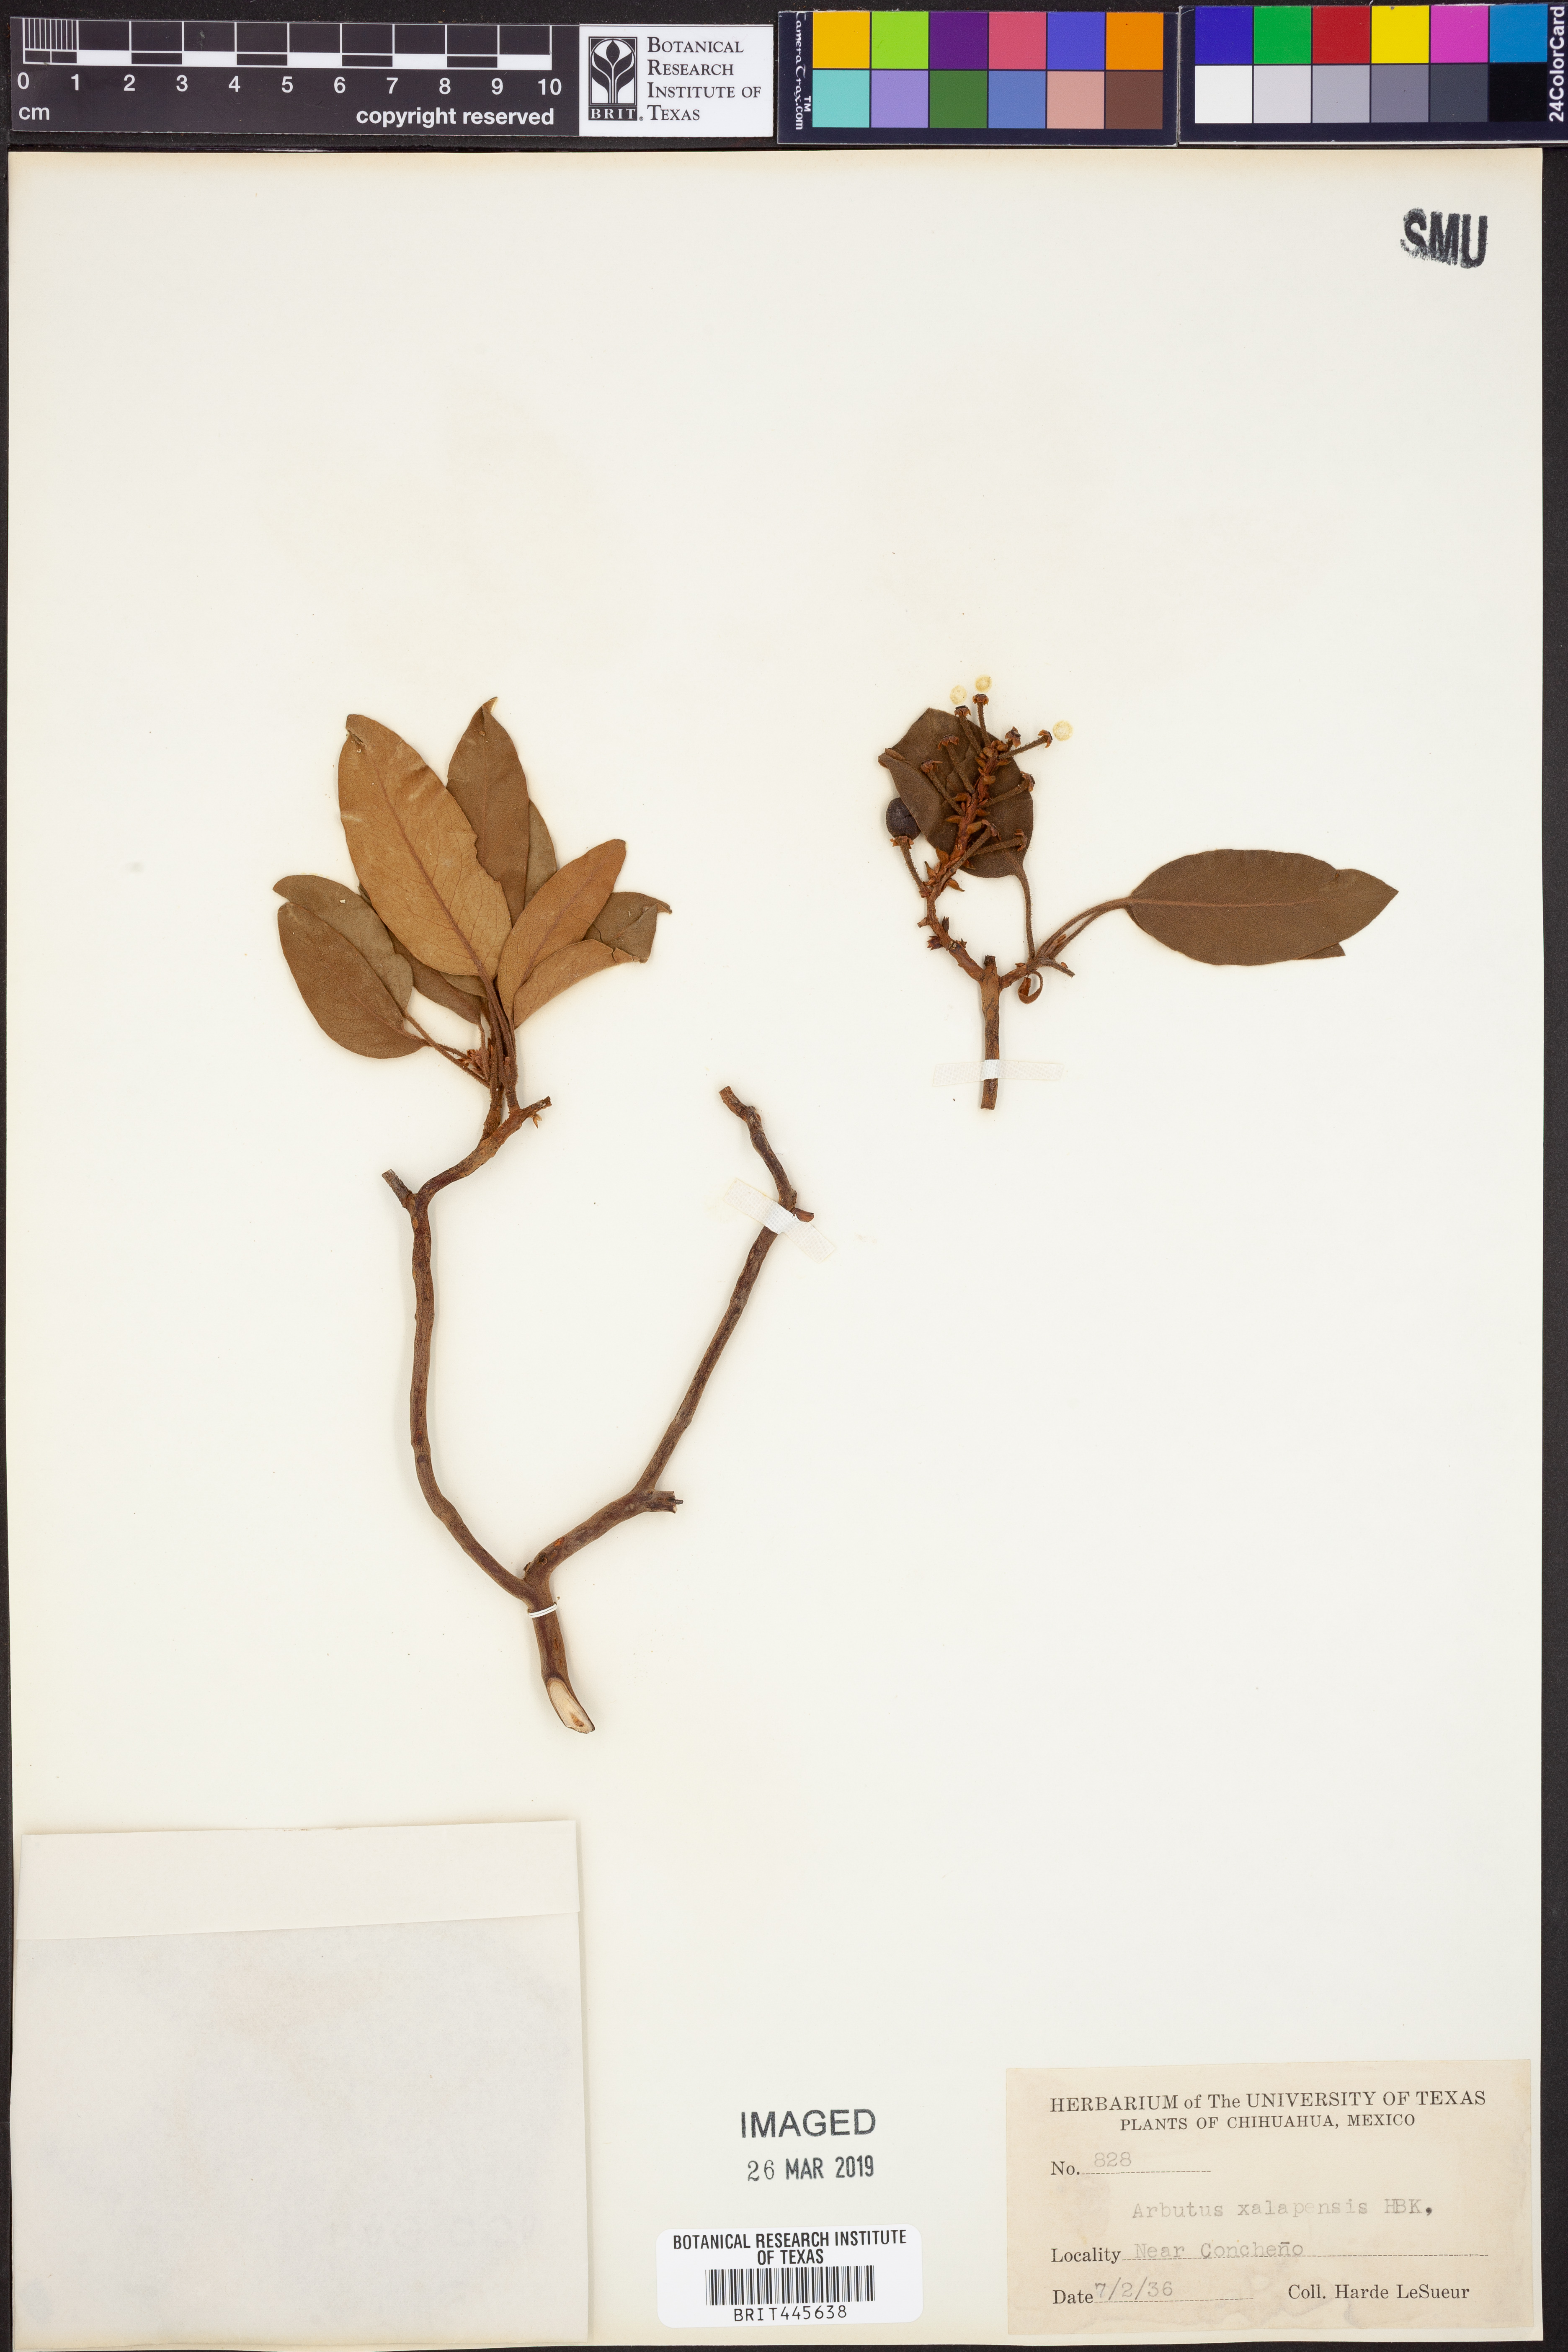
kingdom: Plantae
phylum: Tracheophyta
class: Magnoliopsida
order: Ericales
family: Ericaceae
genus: Arbutus
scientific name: Arbutus xalapensis
